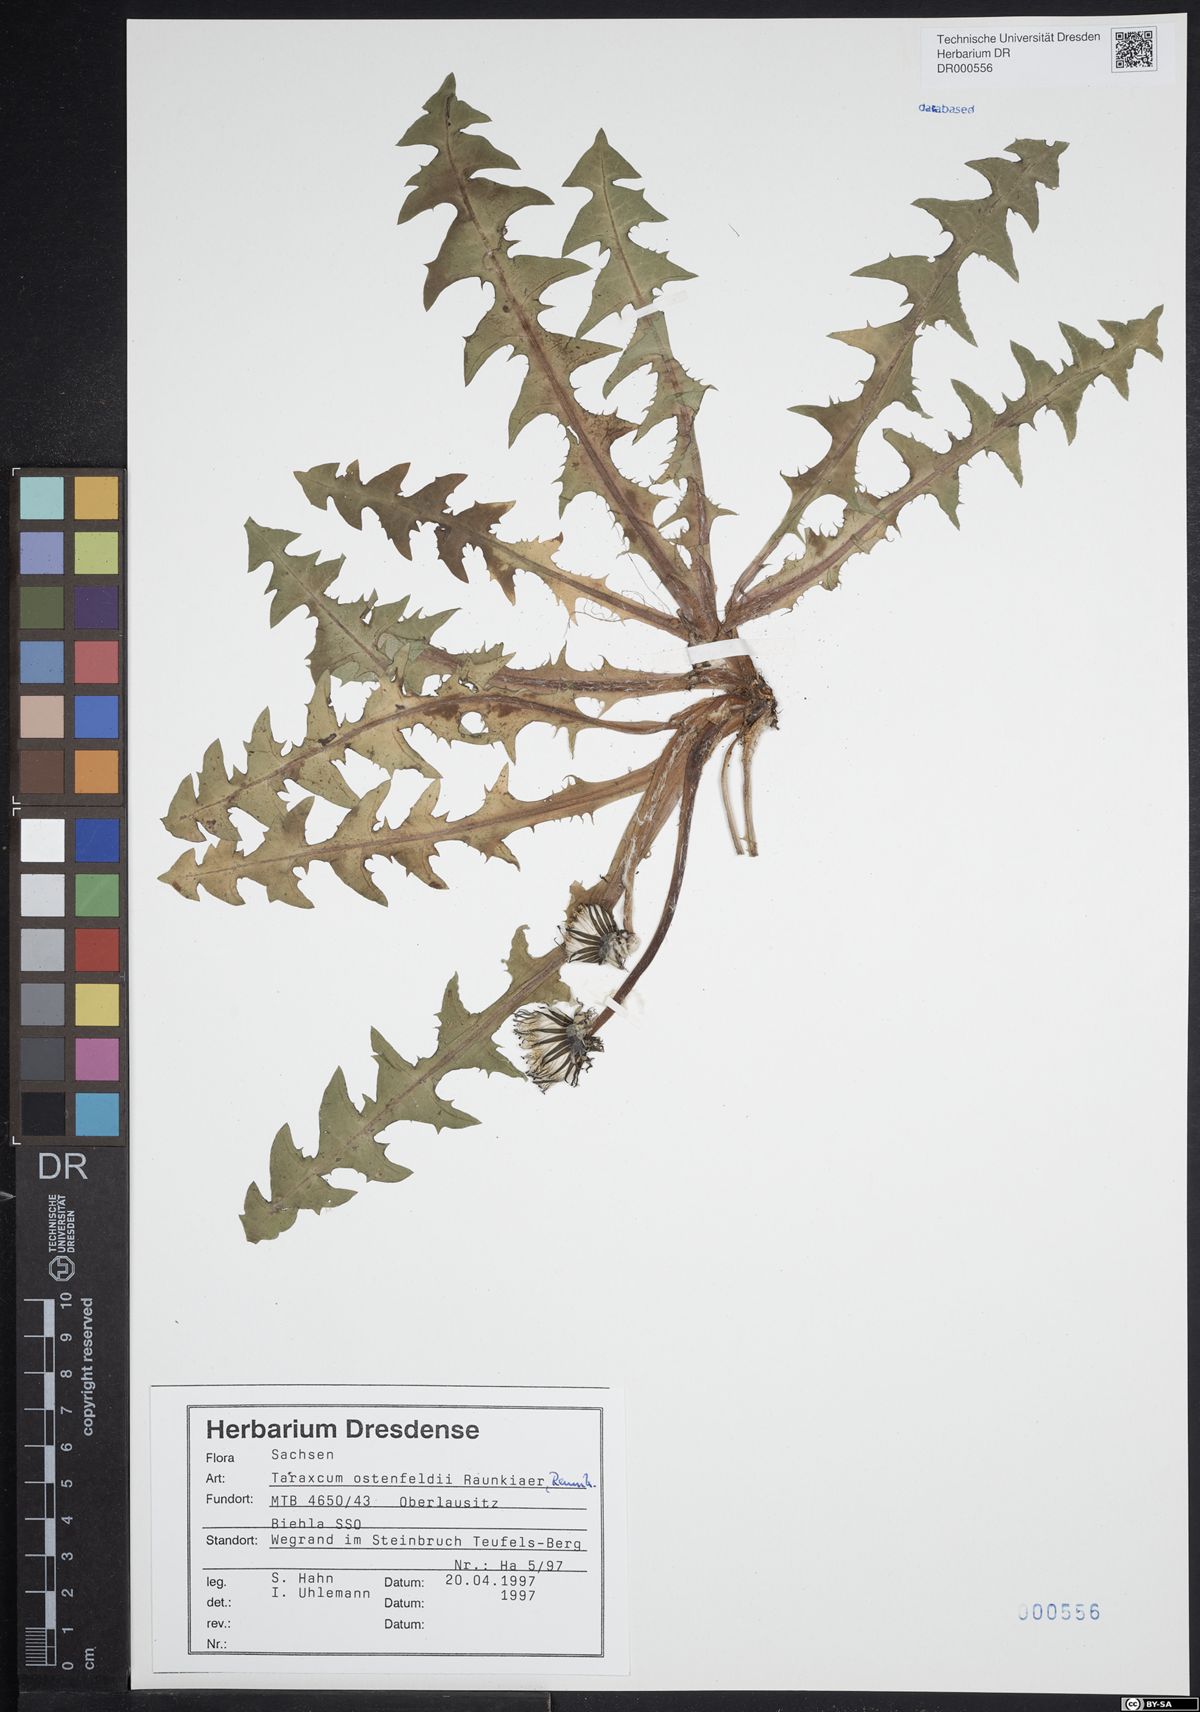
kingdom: Plantae
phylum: Tracheophyta
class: Magnoliopsida
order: Asterales
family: Asteraceae
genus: Taraxacum
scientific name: Taraxacum ostenfeldii
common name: Ostenfeld's dandelion
